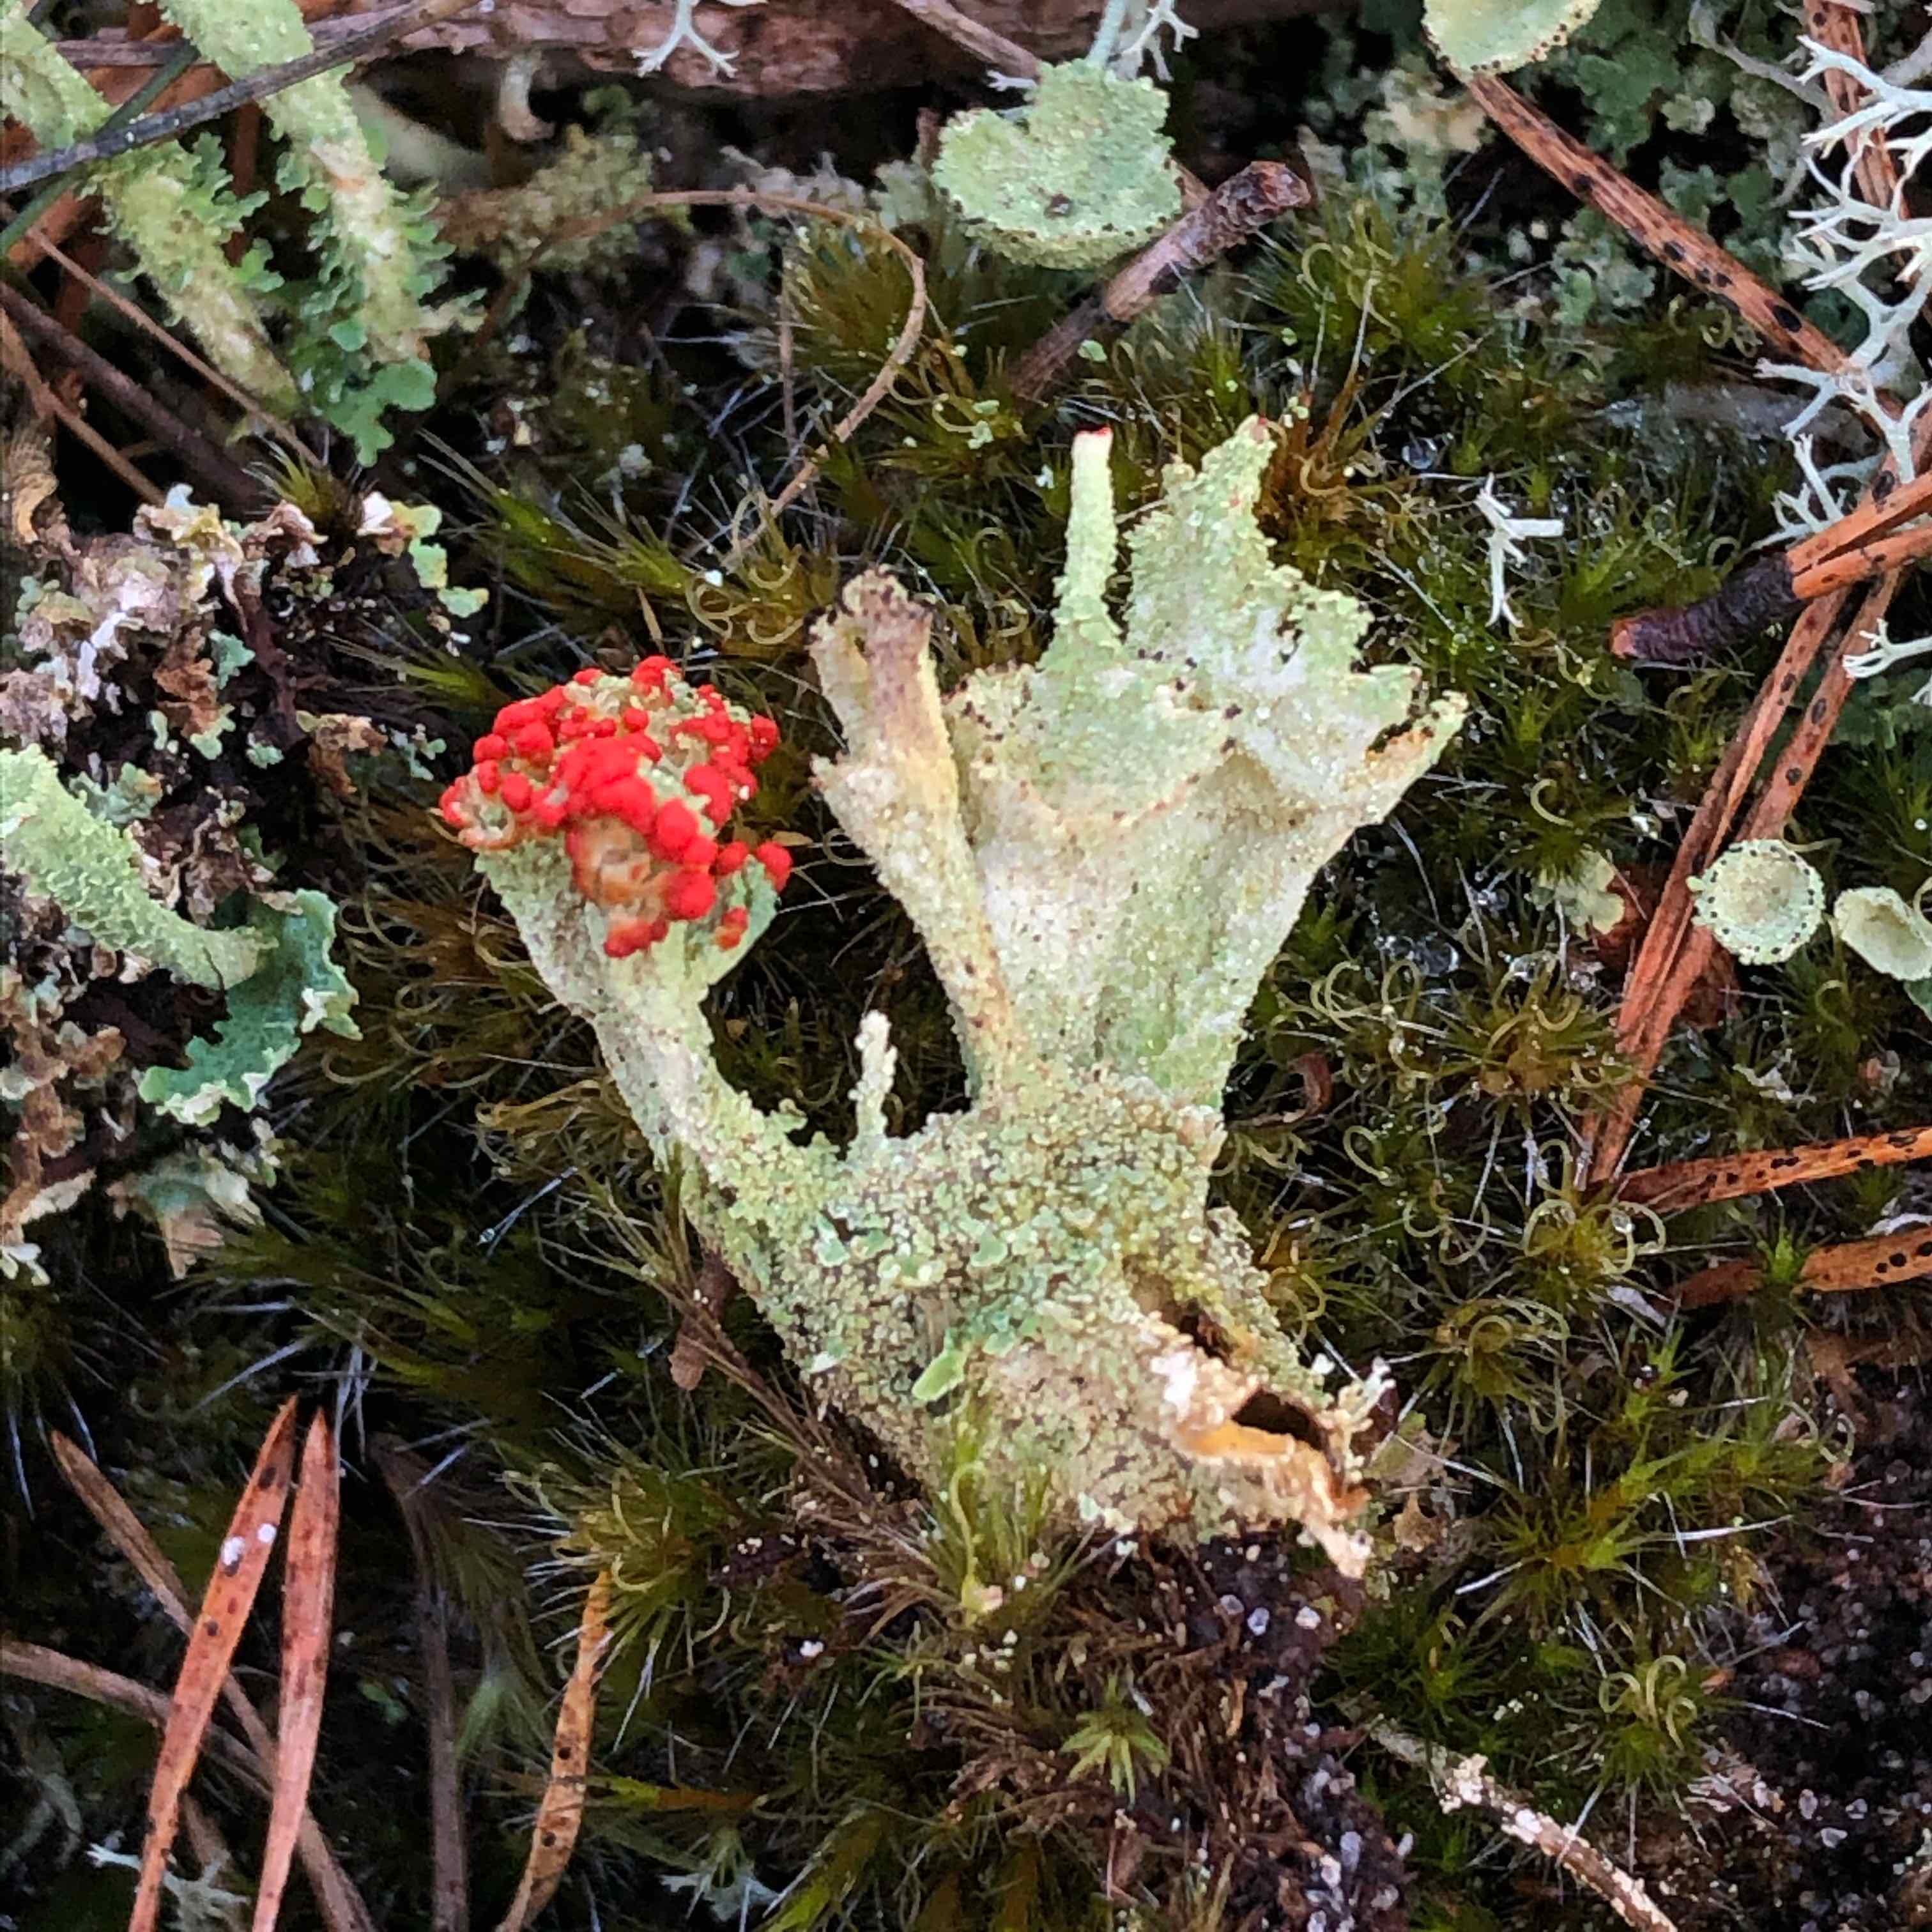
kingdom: Fungi
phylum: Ascomycota
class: Lecanoromycetes
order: Lecanorales
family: Cladoniaceae
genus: Cladonia
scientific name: Cladonia diversa
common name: rød bægerlav
